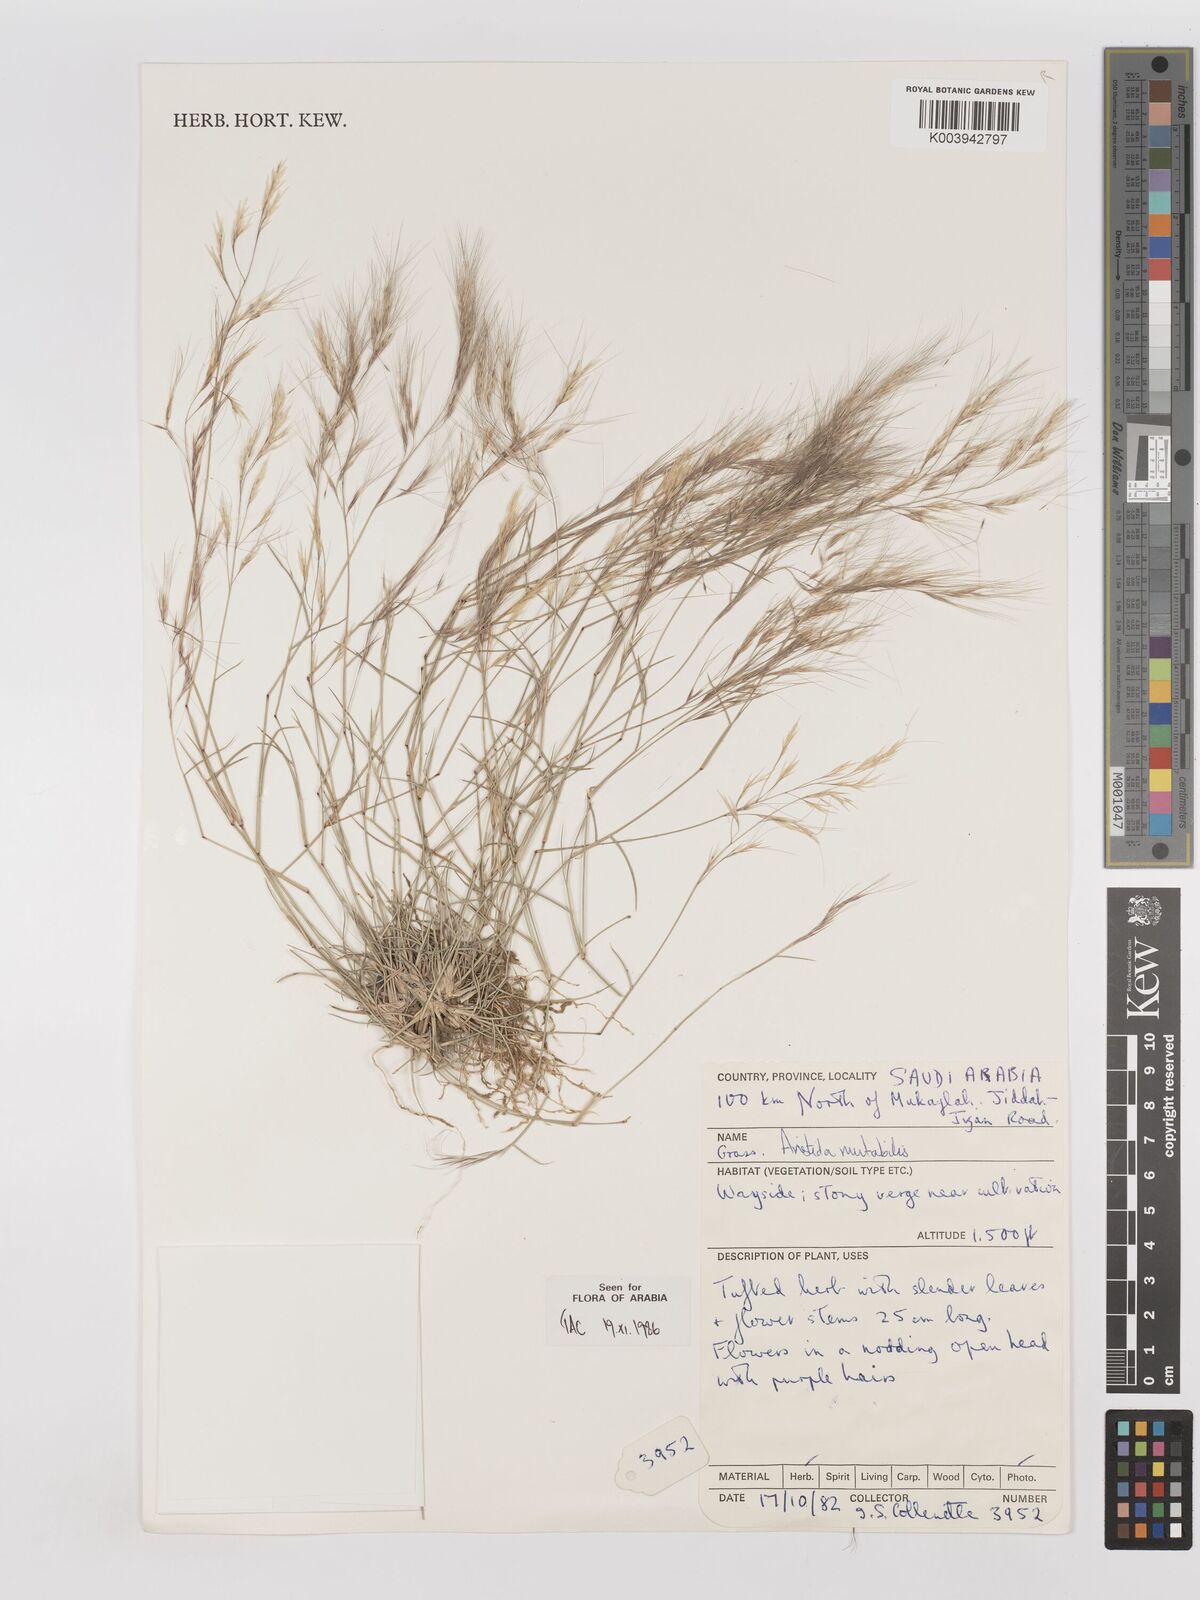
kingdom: Plantae
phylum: Tracheophyta
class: Liliopsida
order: Poales
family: Poaceae
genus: Aristida
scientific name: Aristida mutabilis
